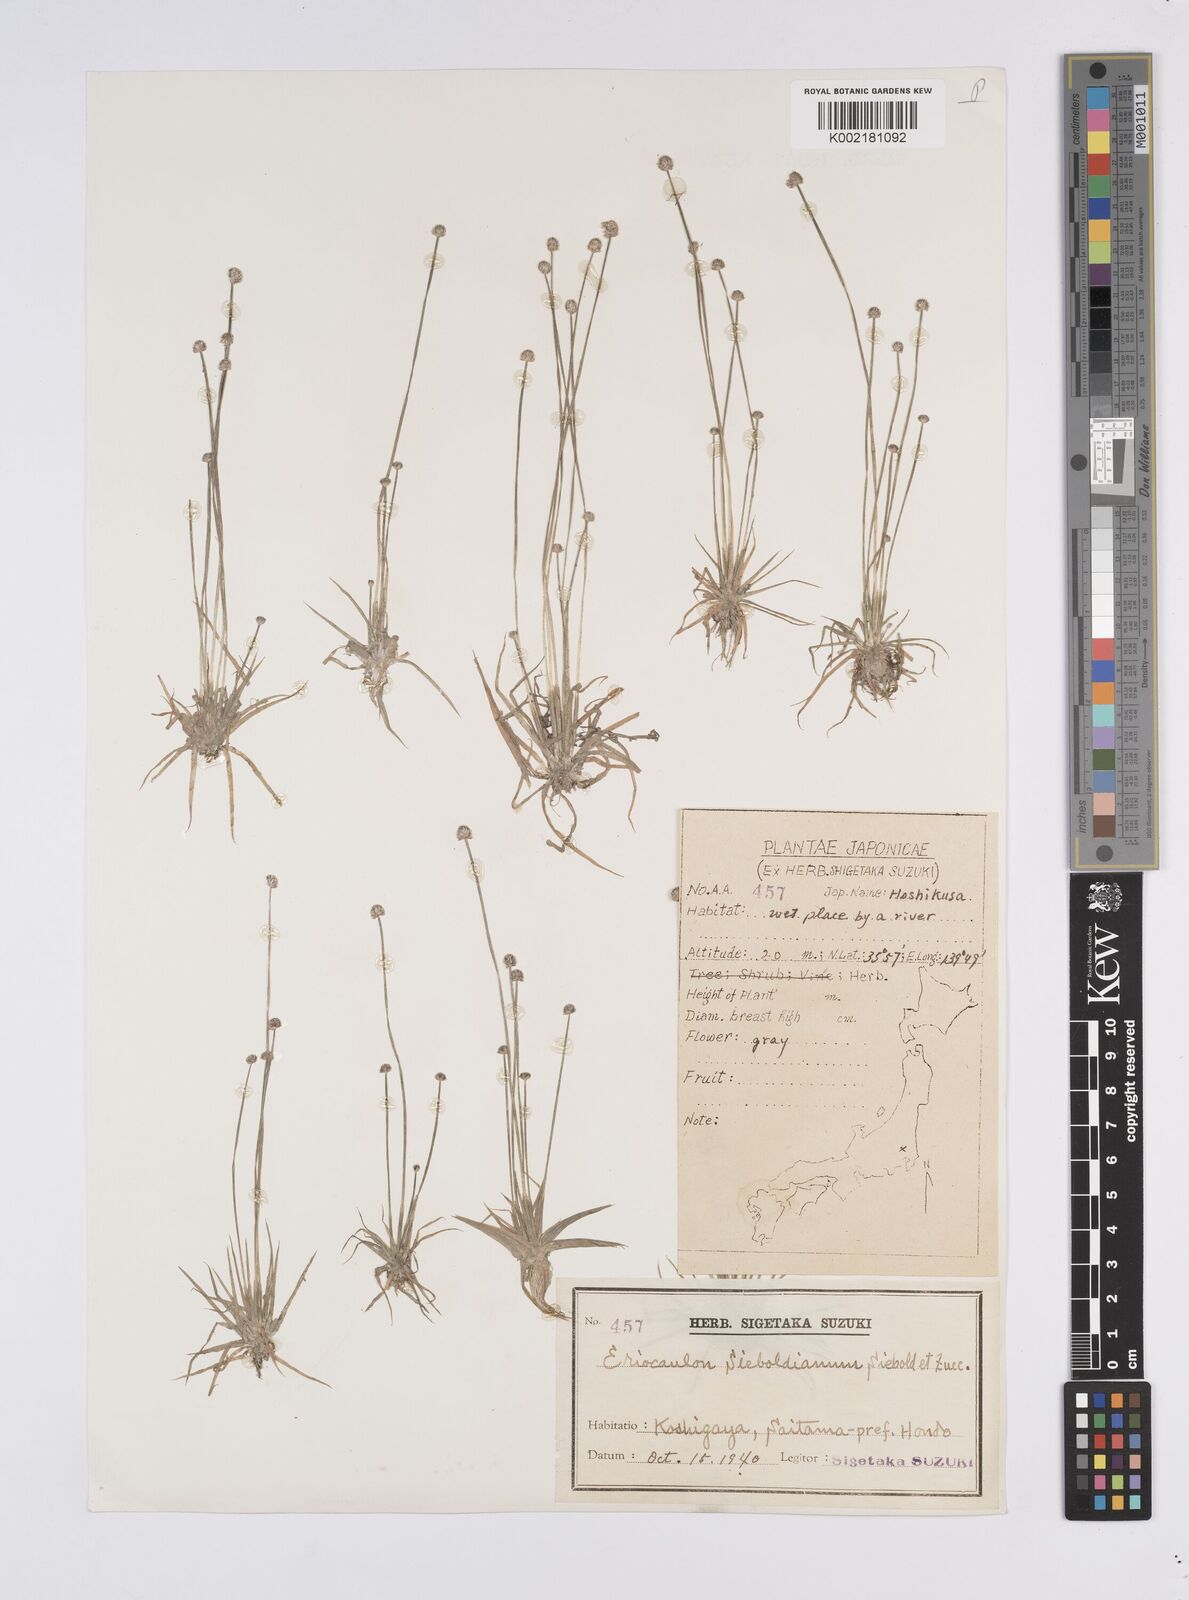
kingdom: Plantae
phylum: Tracheophyta
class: Liliopsida
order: Poales
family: Eriocaulaceae
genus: Eriocaulon
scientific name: Eriocaulon cinereum
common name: Ashy pipewort
